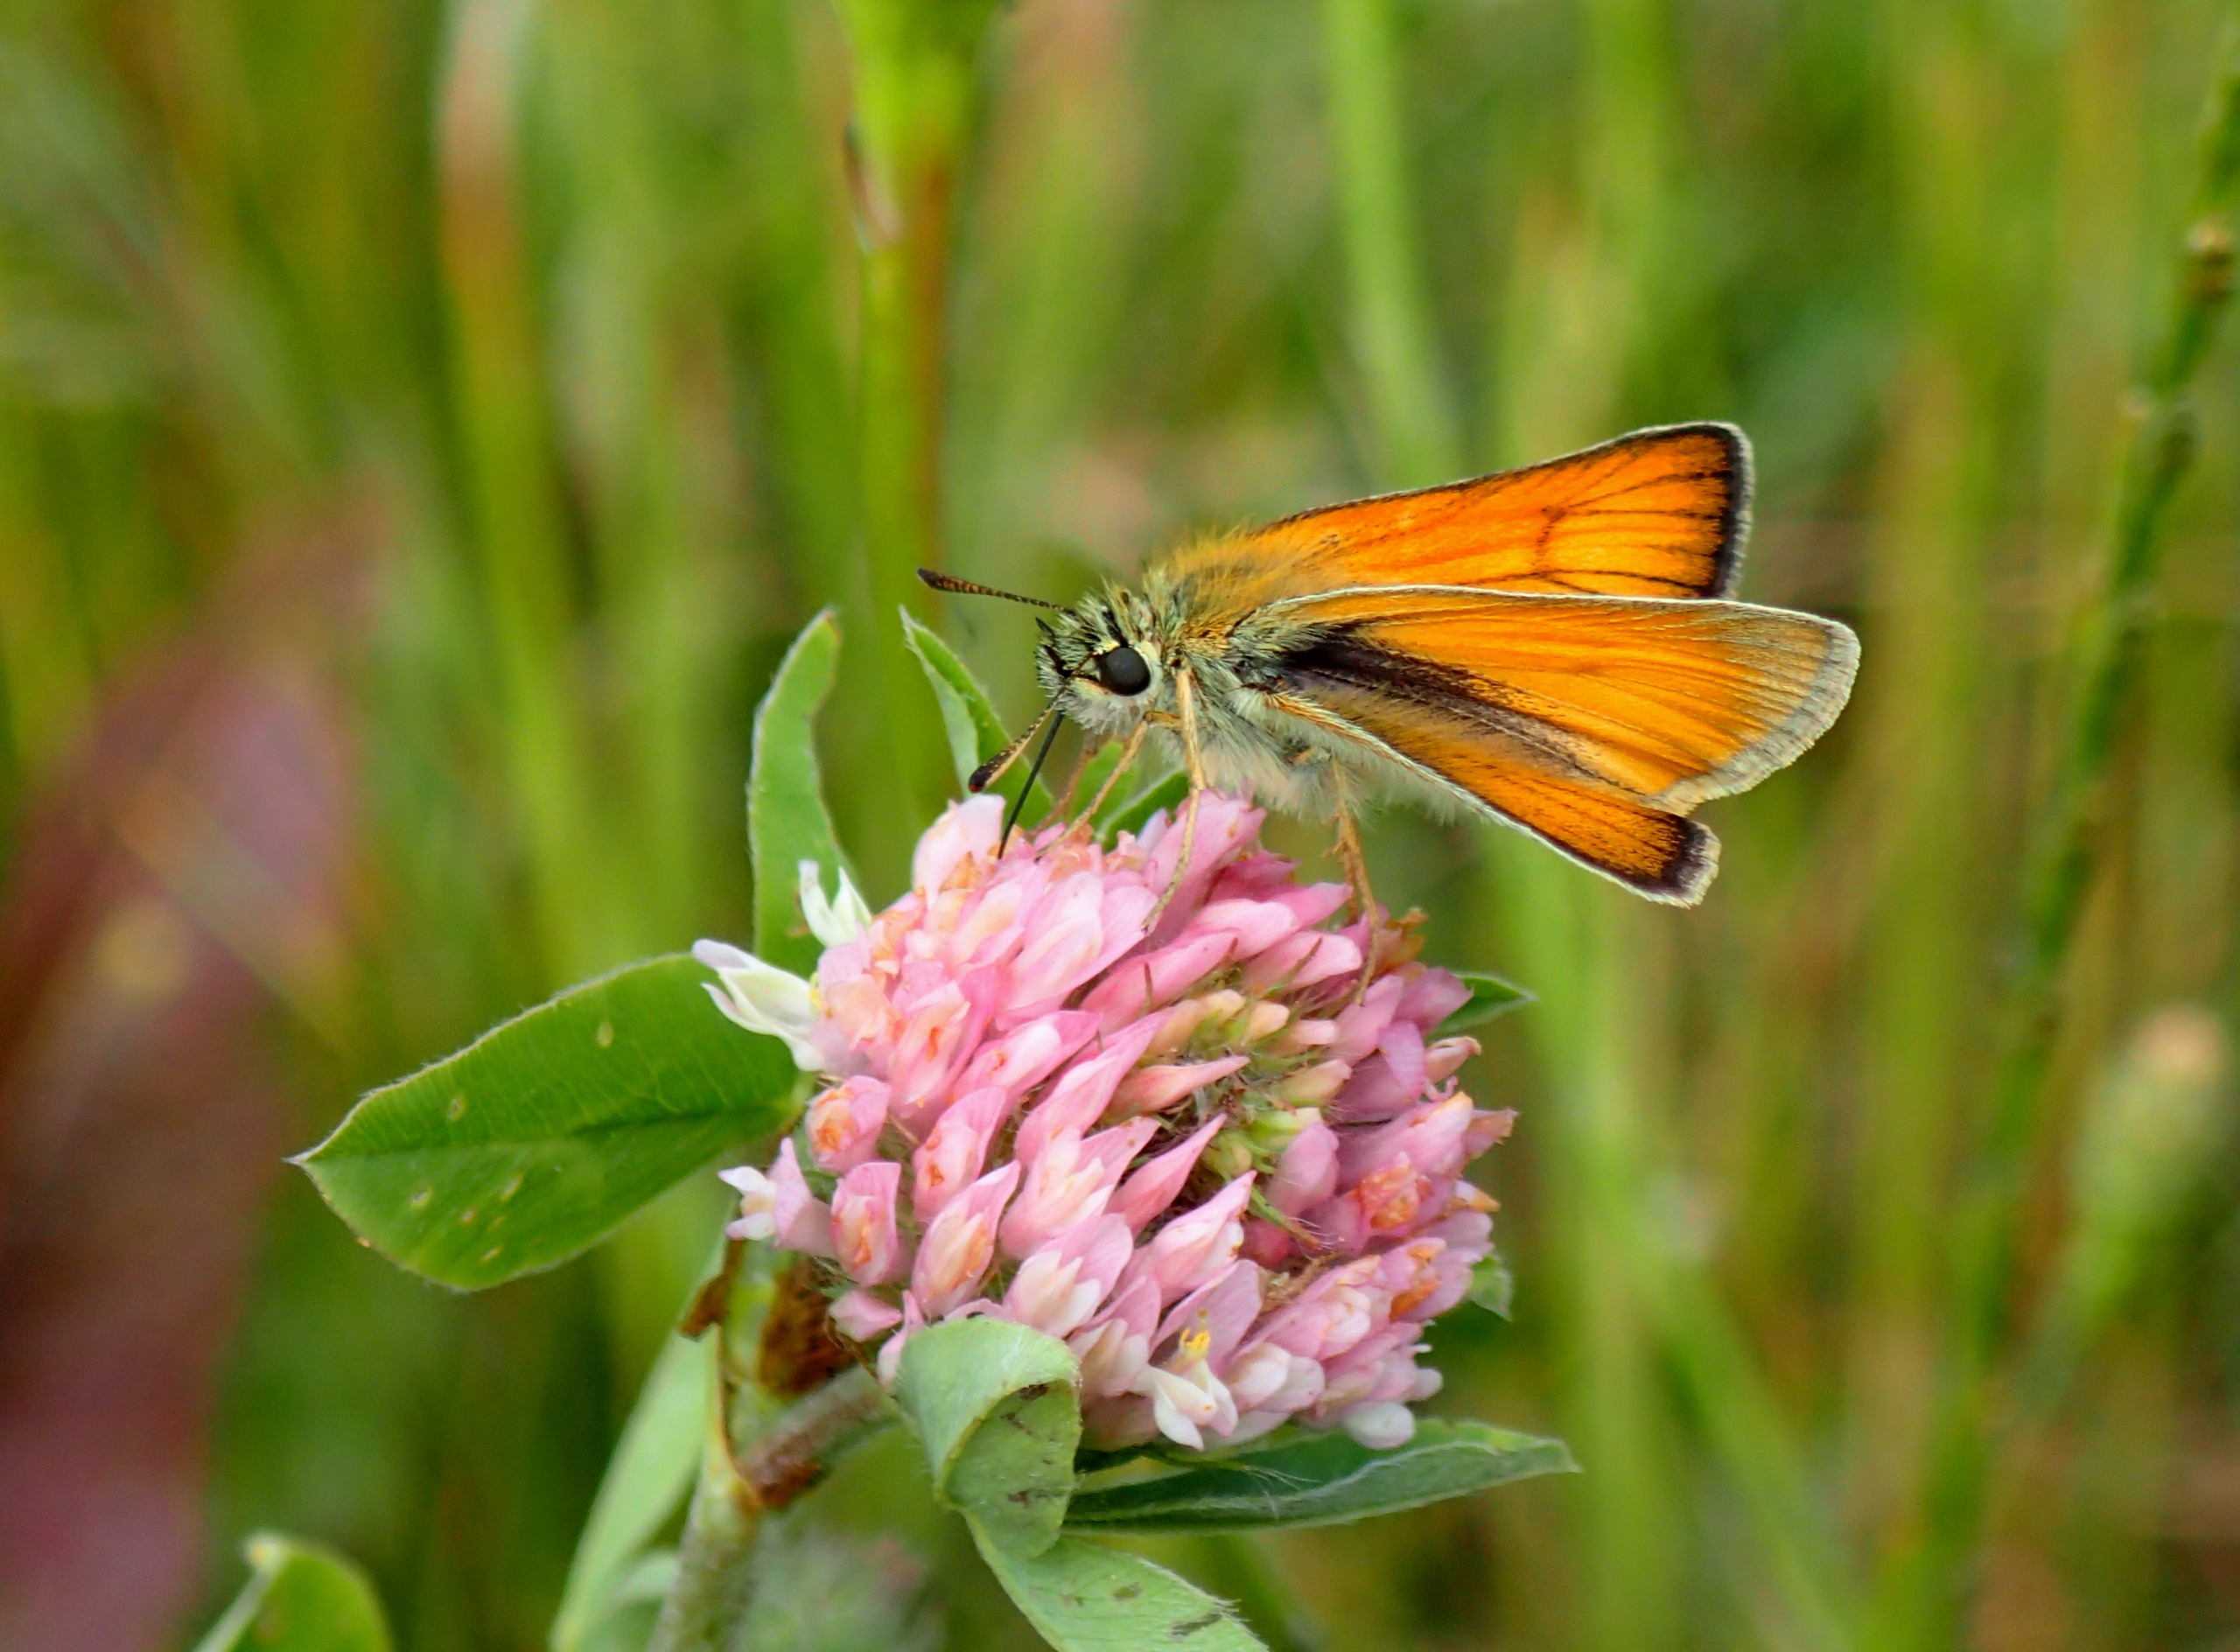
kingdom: Animalia
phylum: Arthropoda
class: Insecta
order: Lepidoptera
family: Hesperiidae
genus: Thymelicus
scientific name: Thymelicus lineola
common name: Stregbredpande
